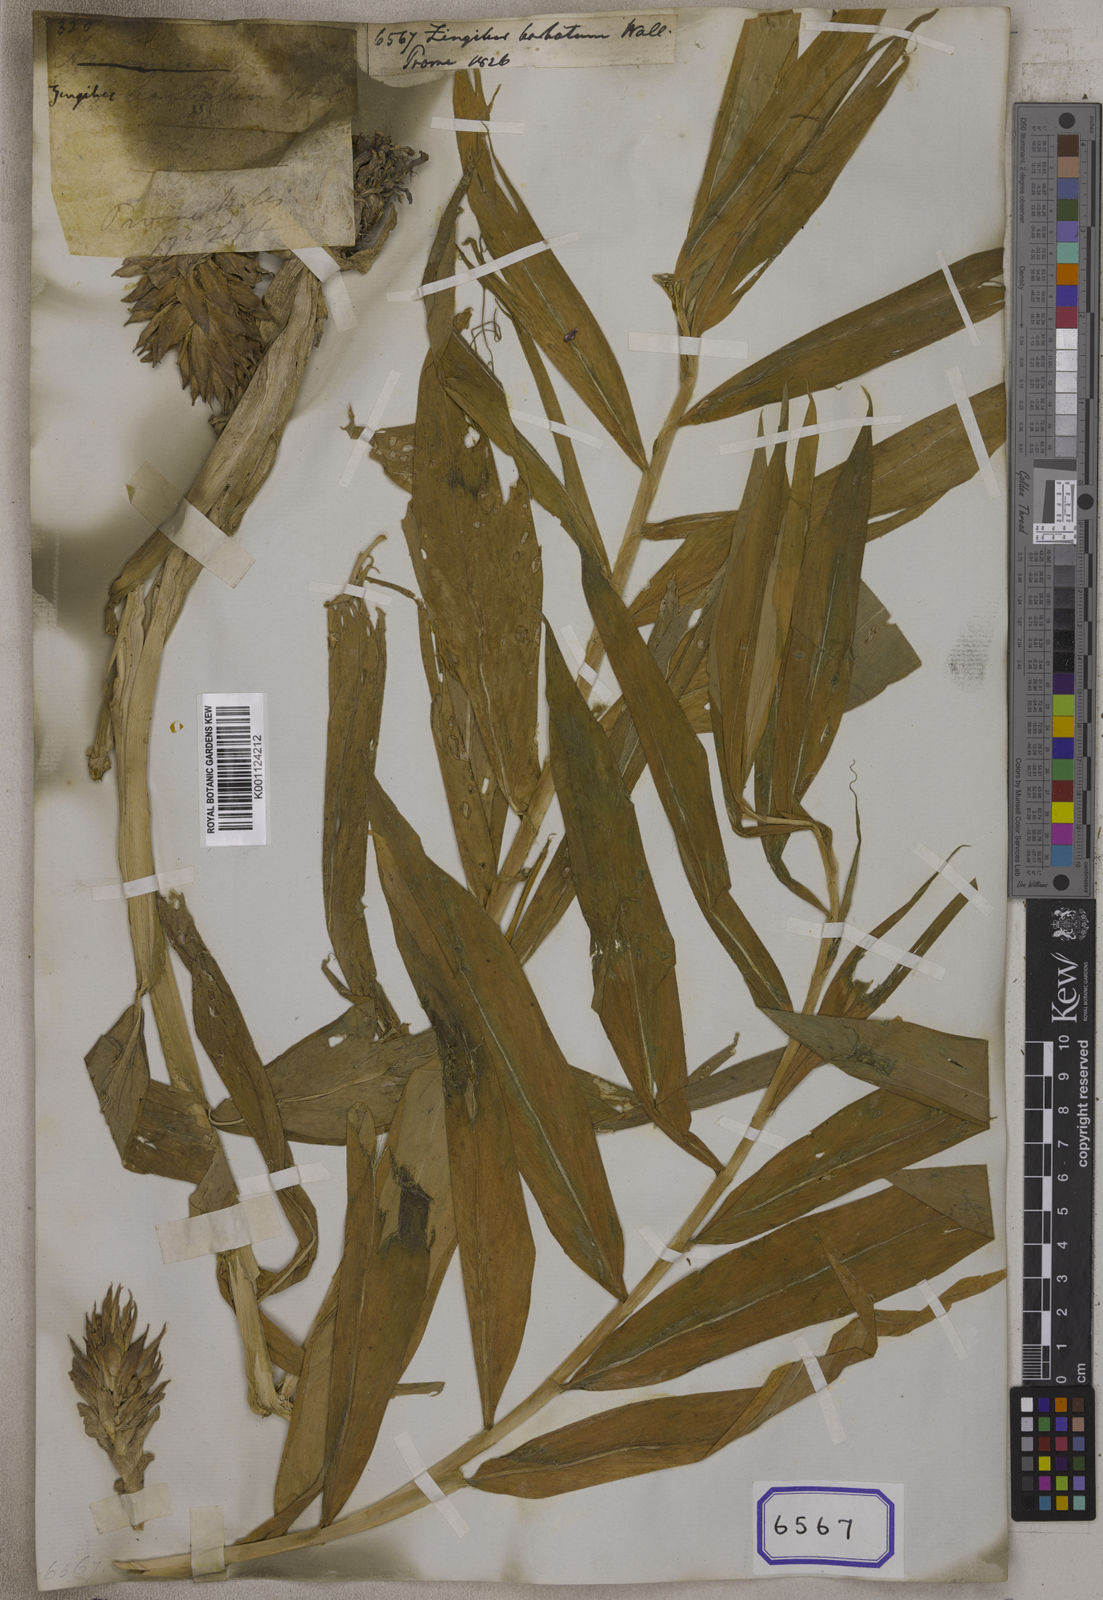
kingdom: Plantae
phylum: Tracheophyta
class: Liliopsida
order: Zingiberales
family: Zingiberaceae
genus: Zingiber
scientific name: Zingiber barbatum
